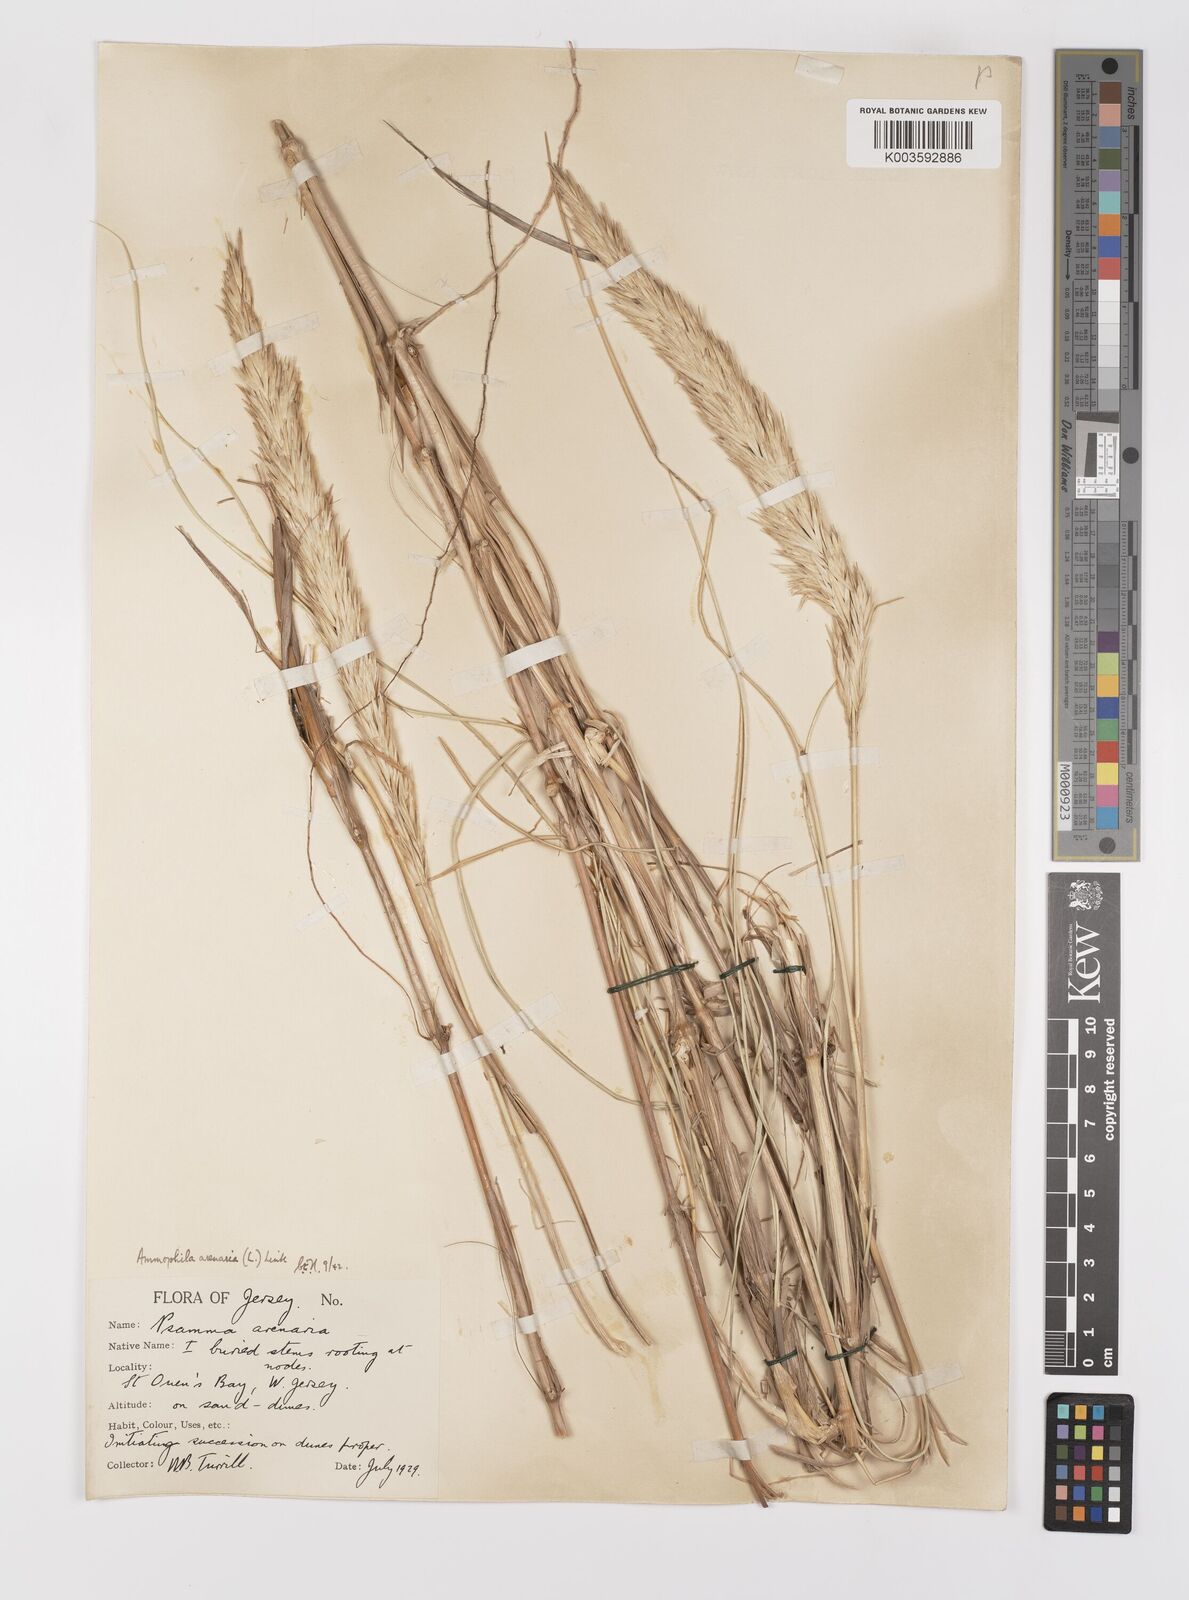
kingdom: Plantae
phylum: Tracheophyta
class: Liliopsida
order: Poales
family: Poaceae
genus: Calamagrostis
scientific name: Calamagrostis arenaria
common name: European beachgrass
